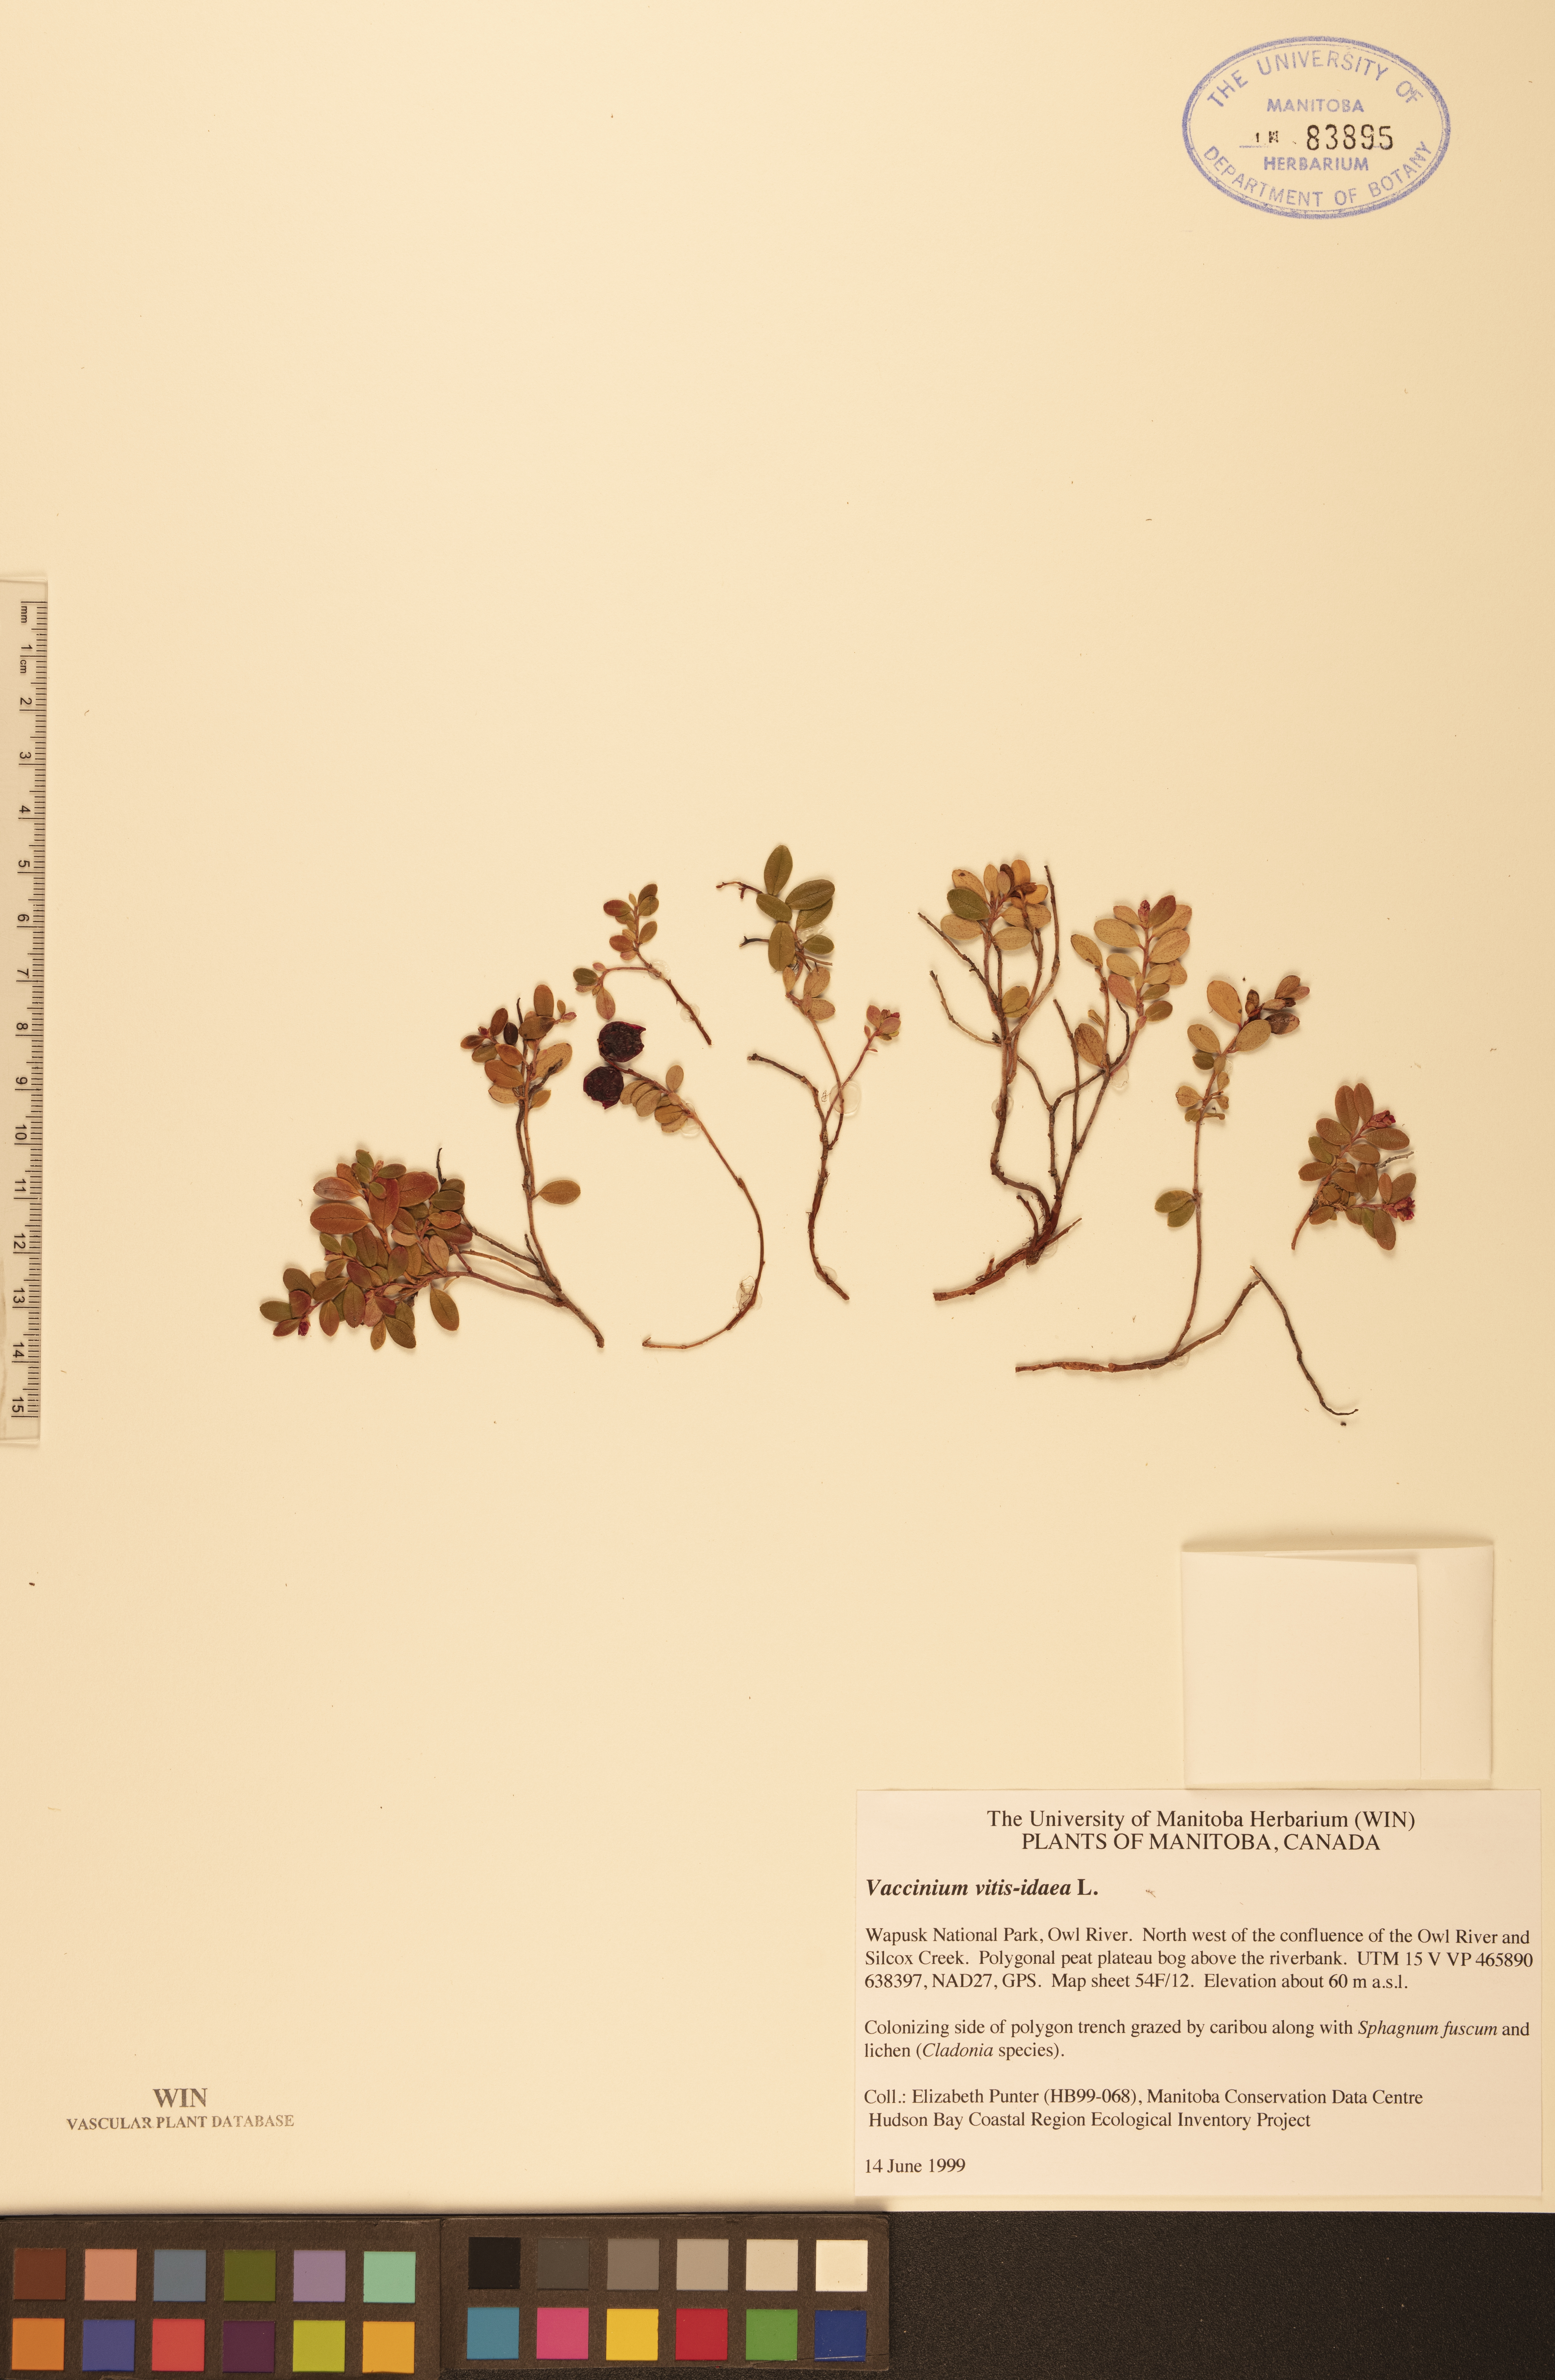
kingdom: Plantae
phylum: Tracheophyta
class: Magnoliopsida
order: Ericales
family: Ericaceae
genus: Vaccinium
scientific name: Vaccinium vitis-idaea
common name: Cowberry
